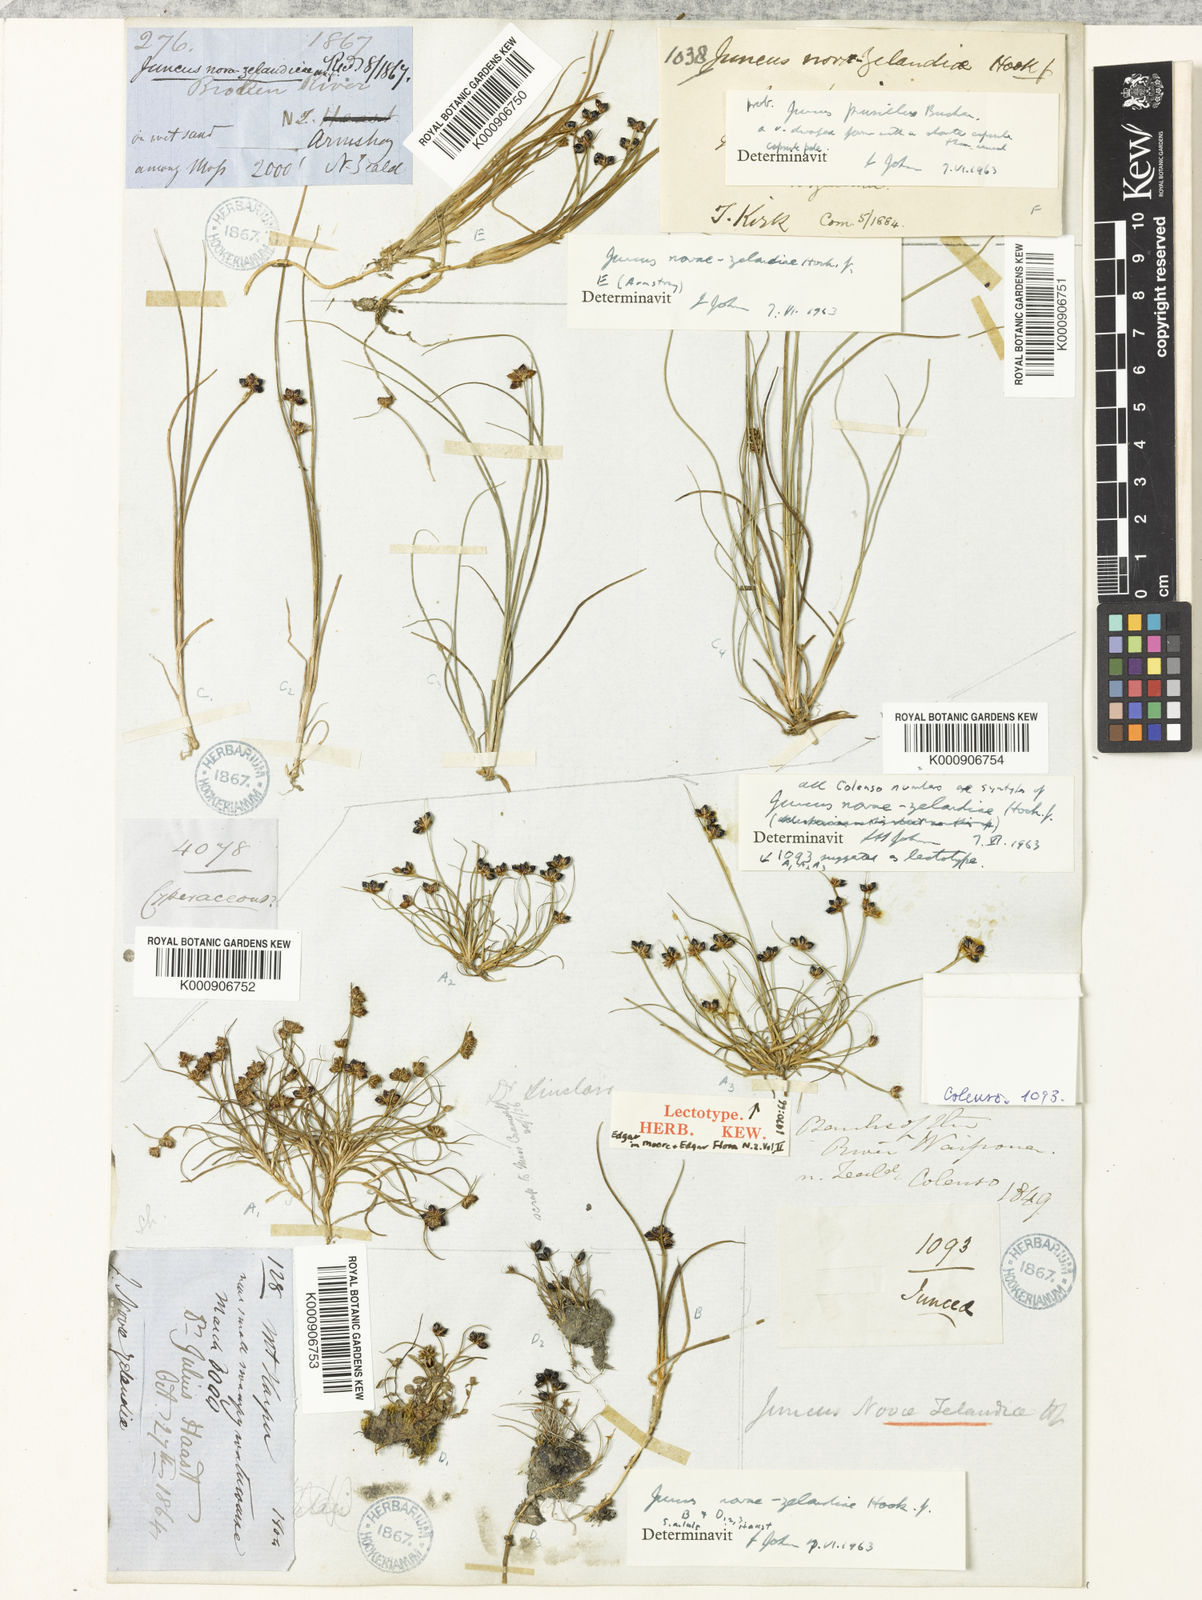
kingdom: Plantae
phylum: Tracheophyta
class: Liliopsida
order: Poales
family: Juncaceae
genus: Juncus
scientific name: Juncus novae-zelandiae
